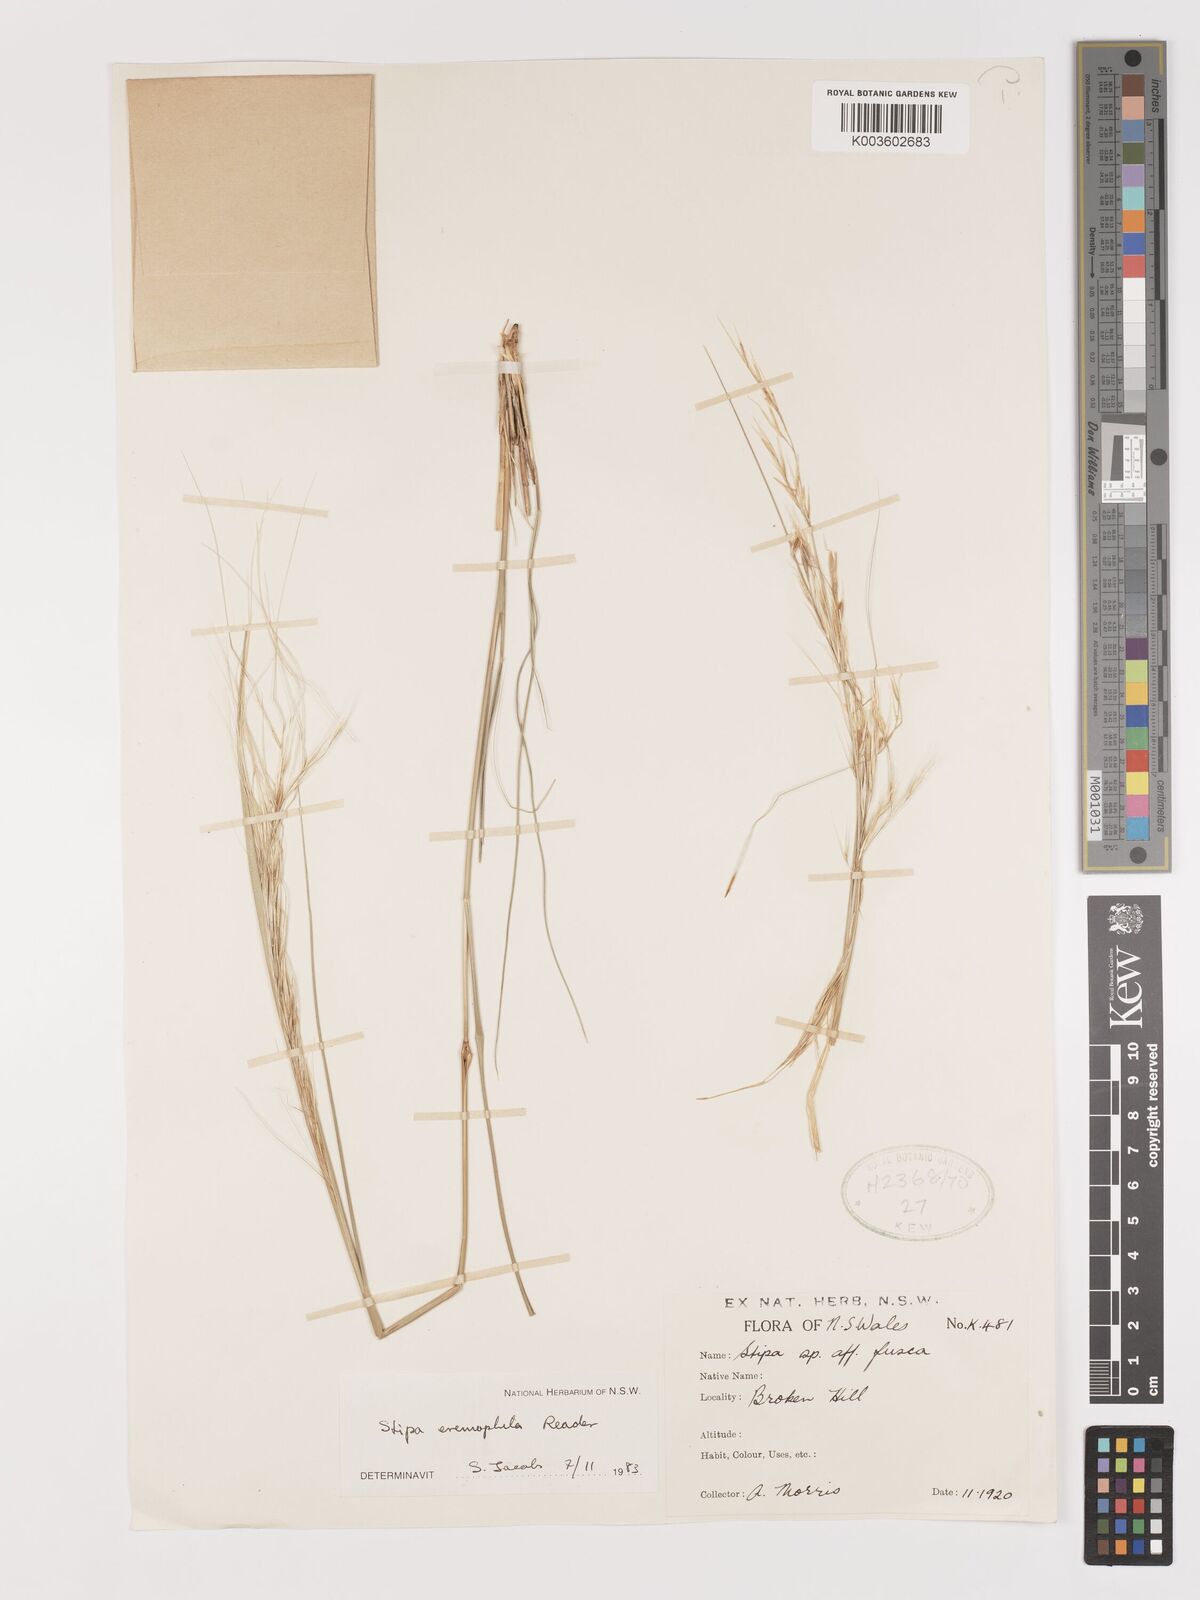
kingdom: Plantae
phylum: Tracheophyta
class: Liliopsida
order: Poales
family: Poaceae
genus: Austrostipa
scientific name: Austrostipa eremophila
